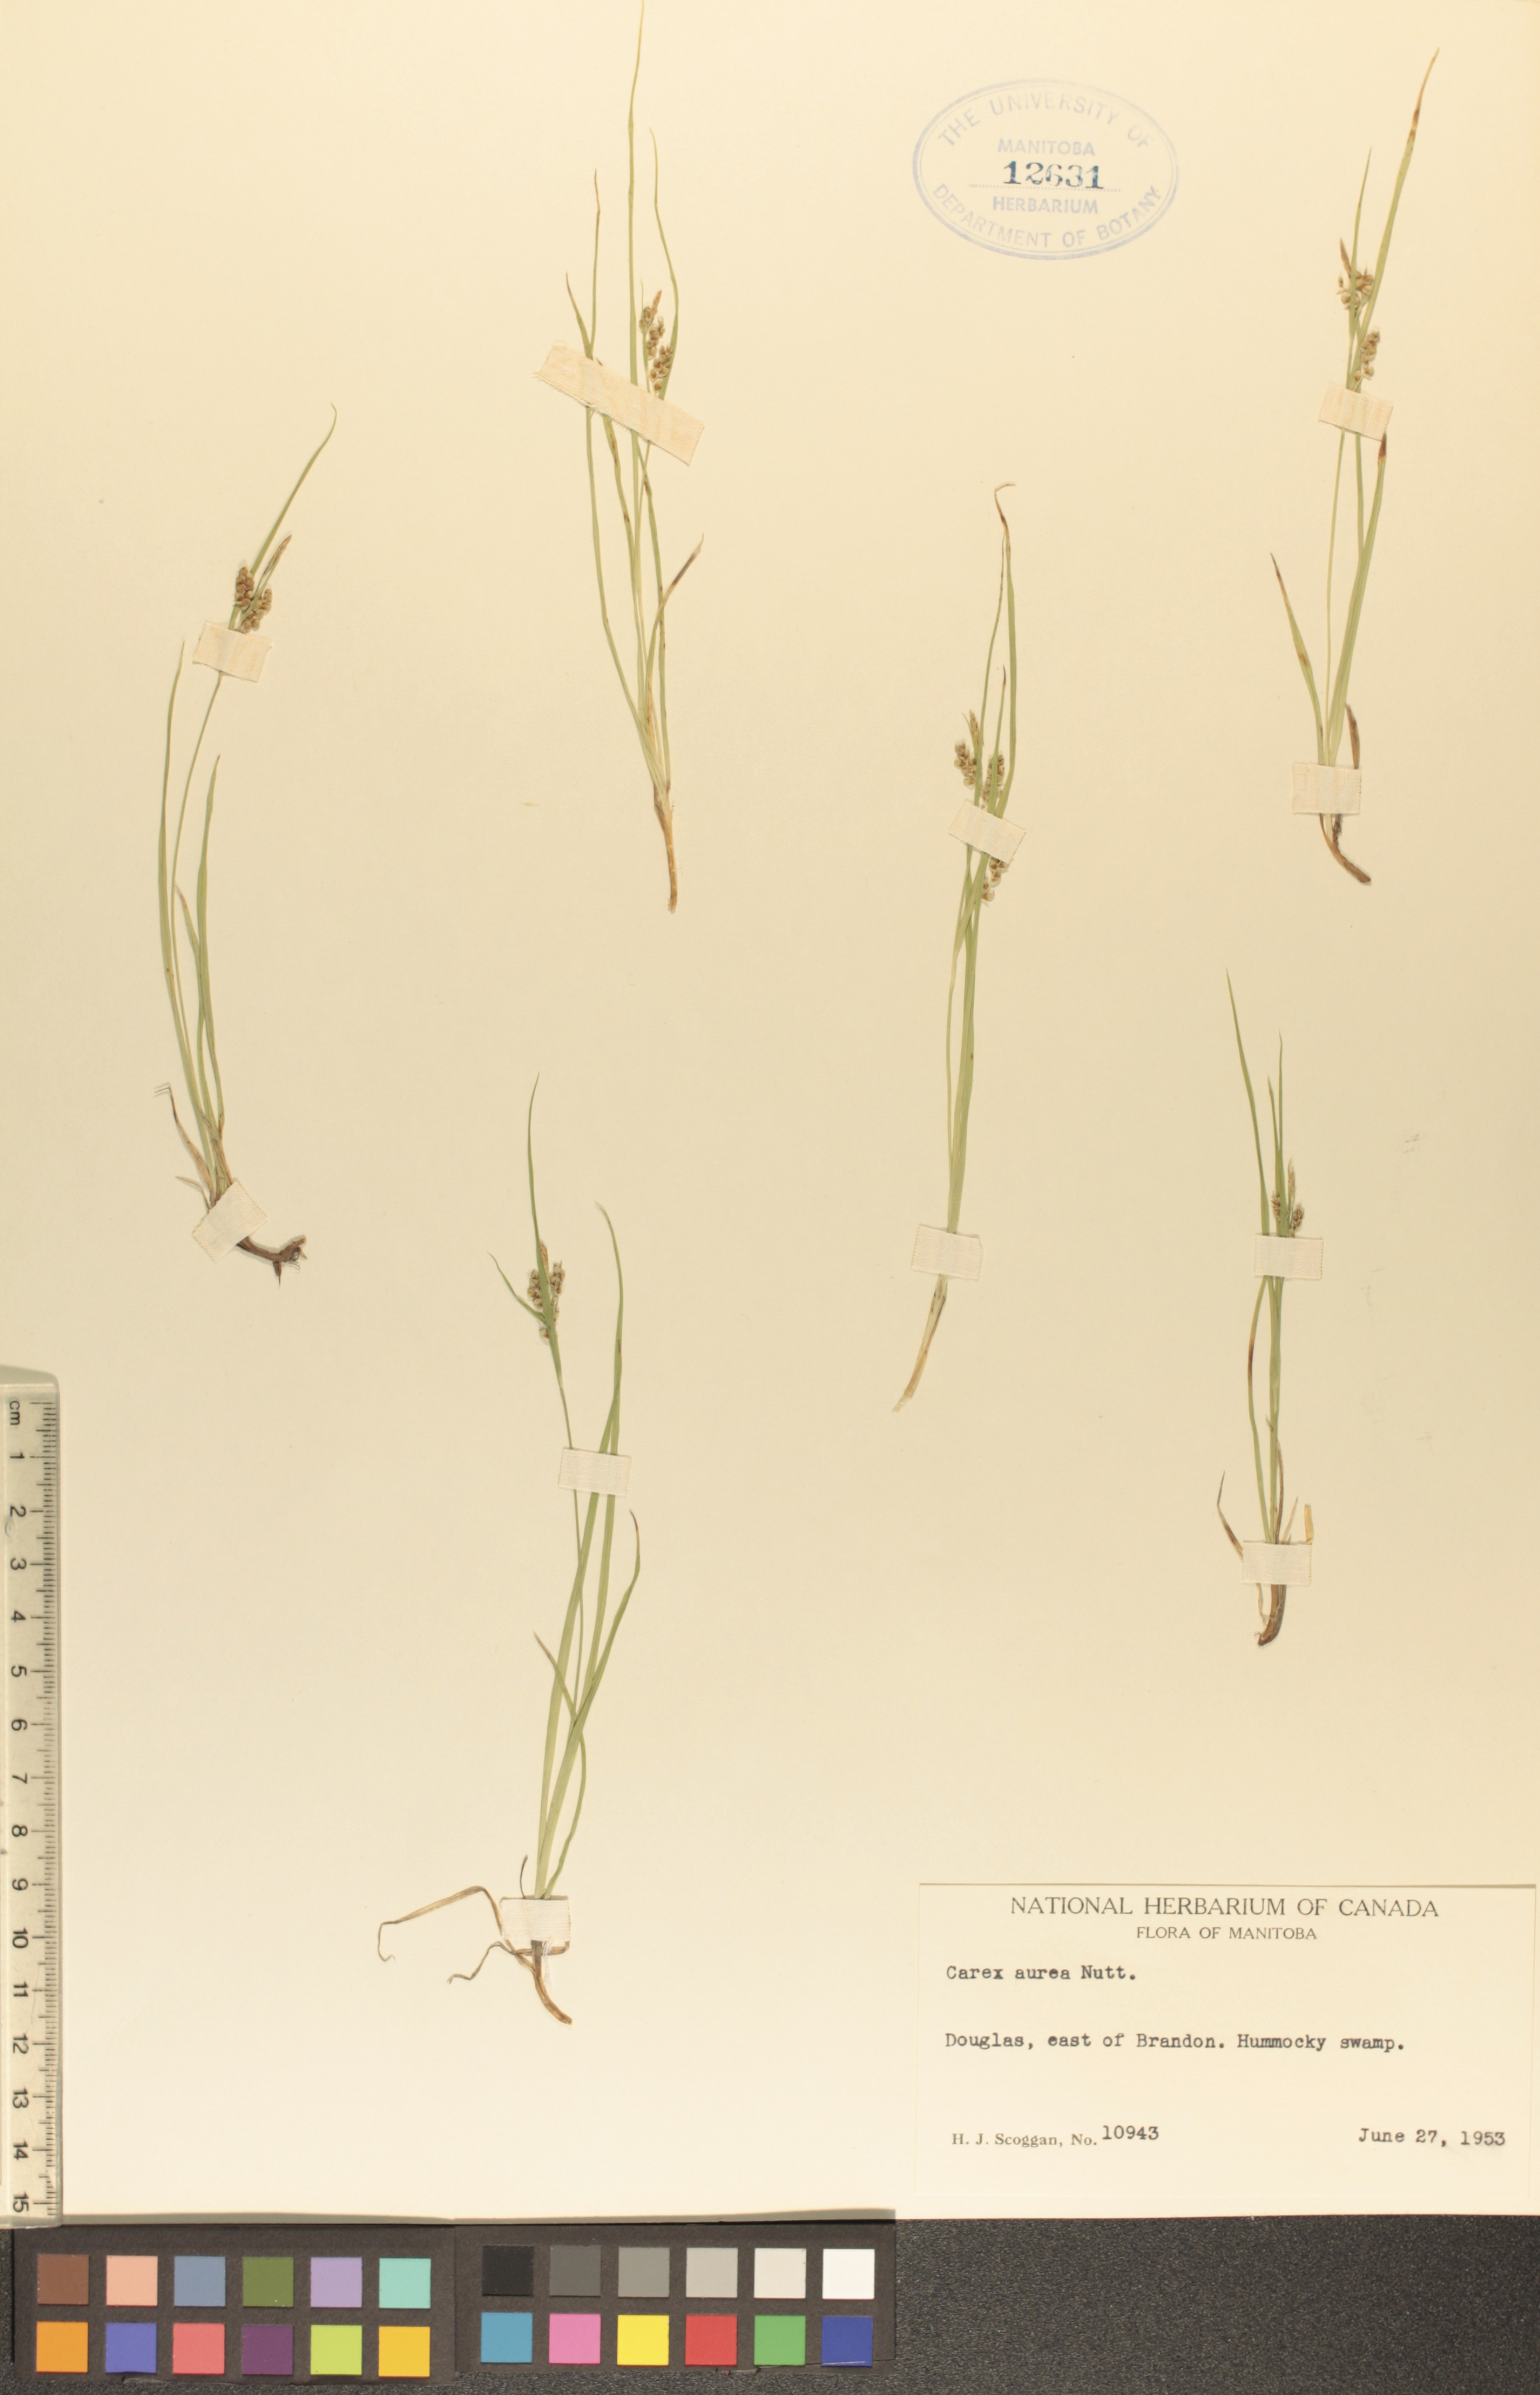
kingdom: Plantae
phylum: Tracheophyta
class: Liliopsida
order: Poales
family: Cyperaceae
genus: Carex
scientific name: Carex aurea
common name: Golden sedge
